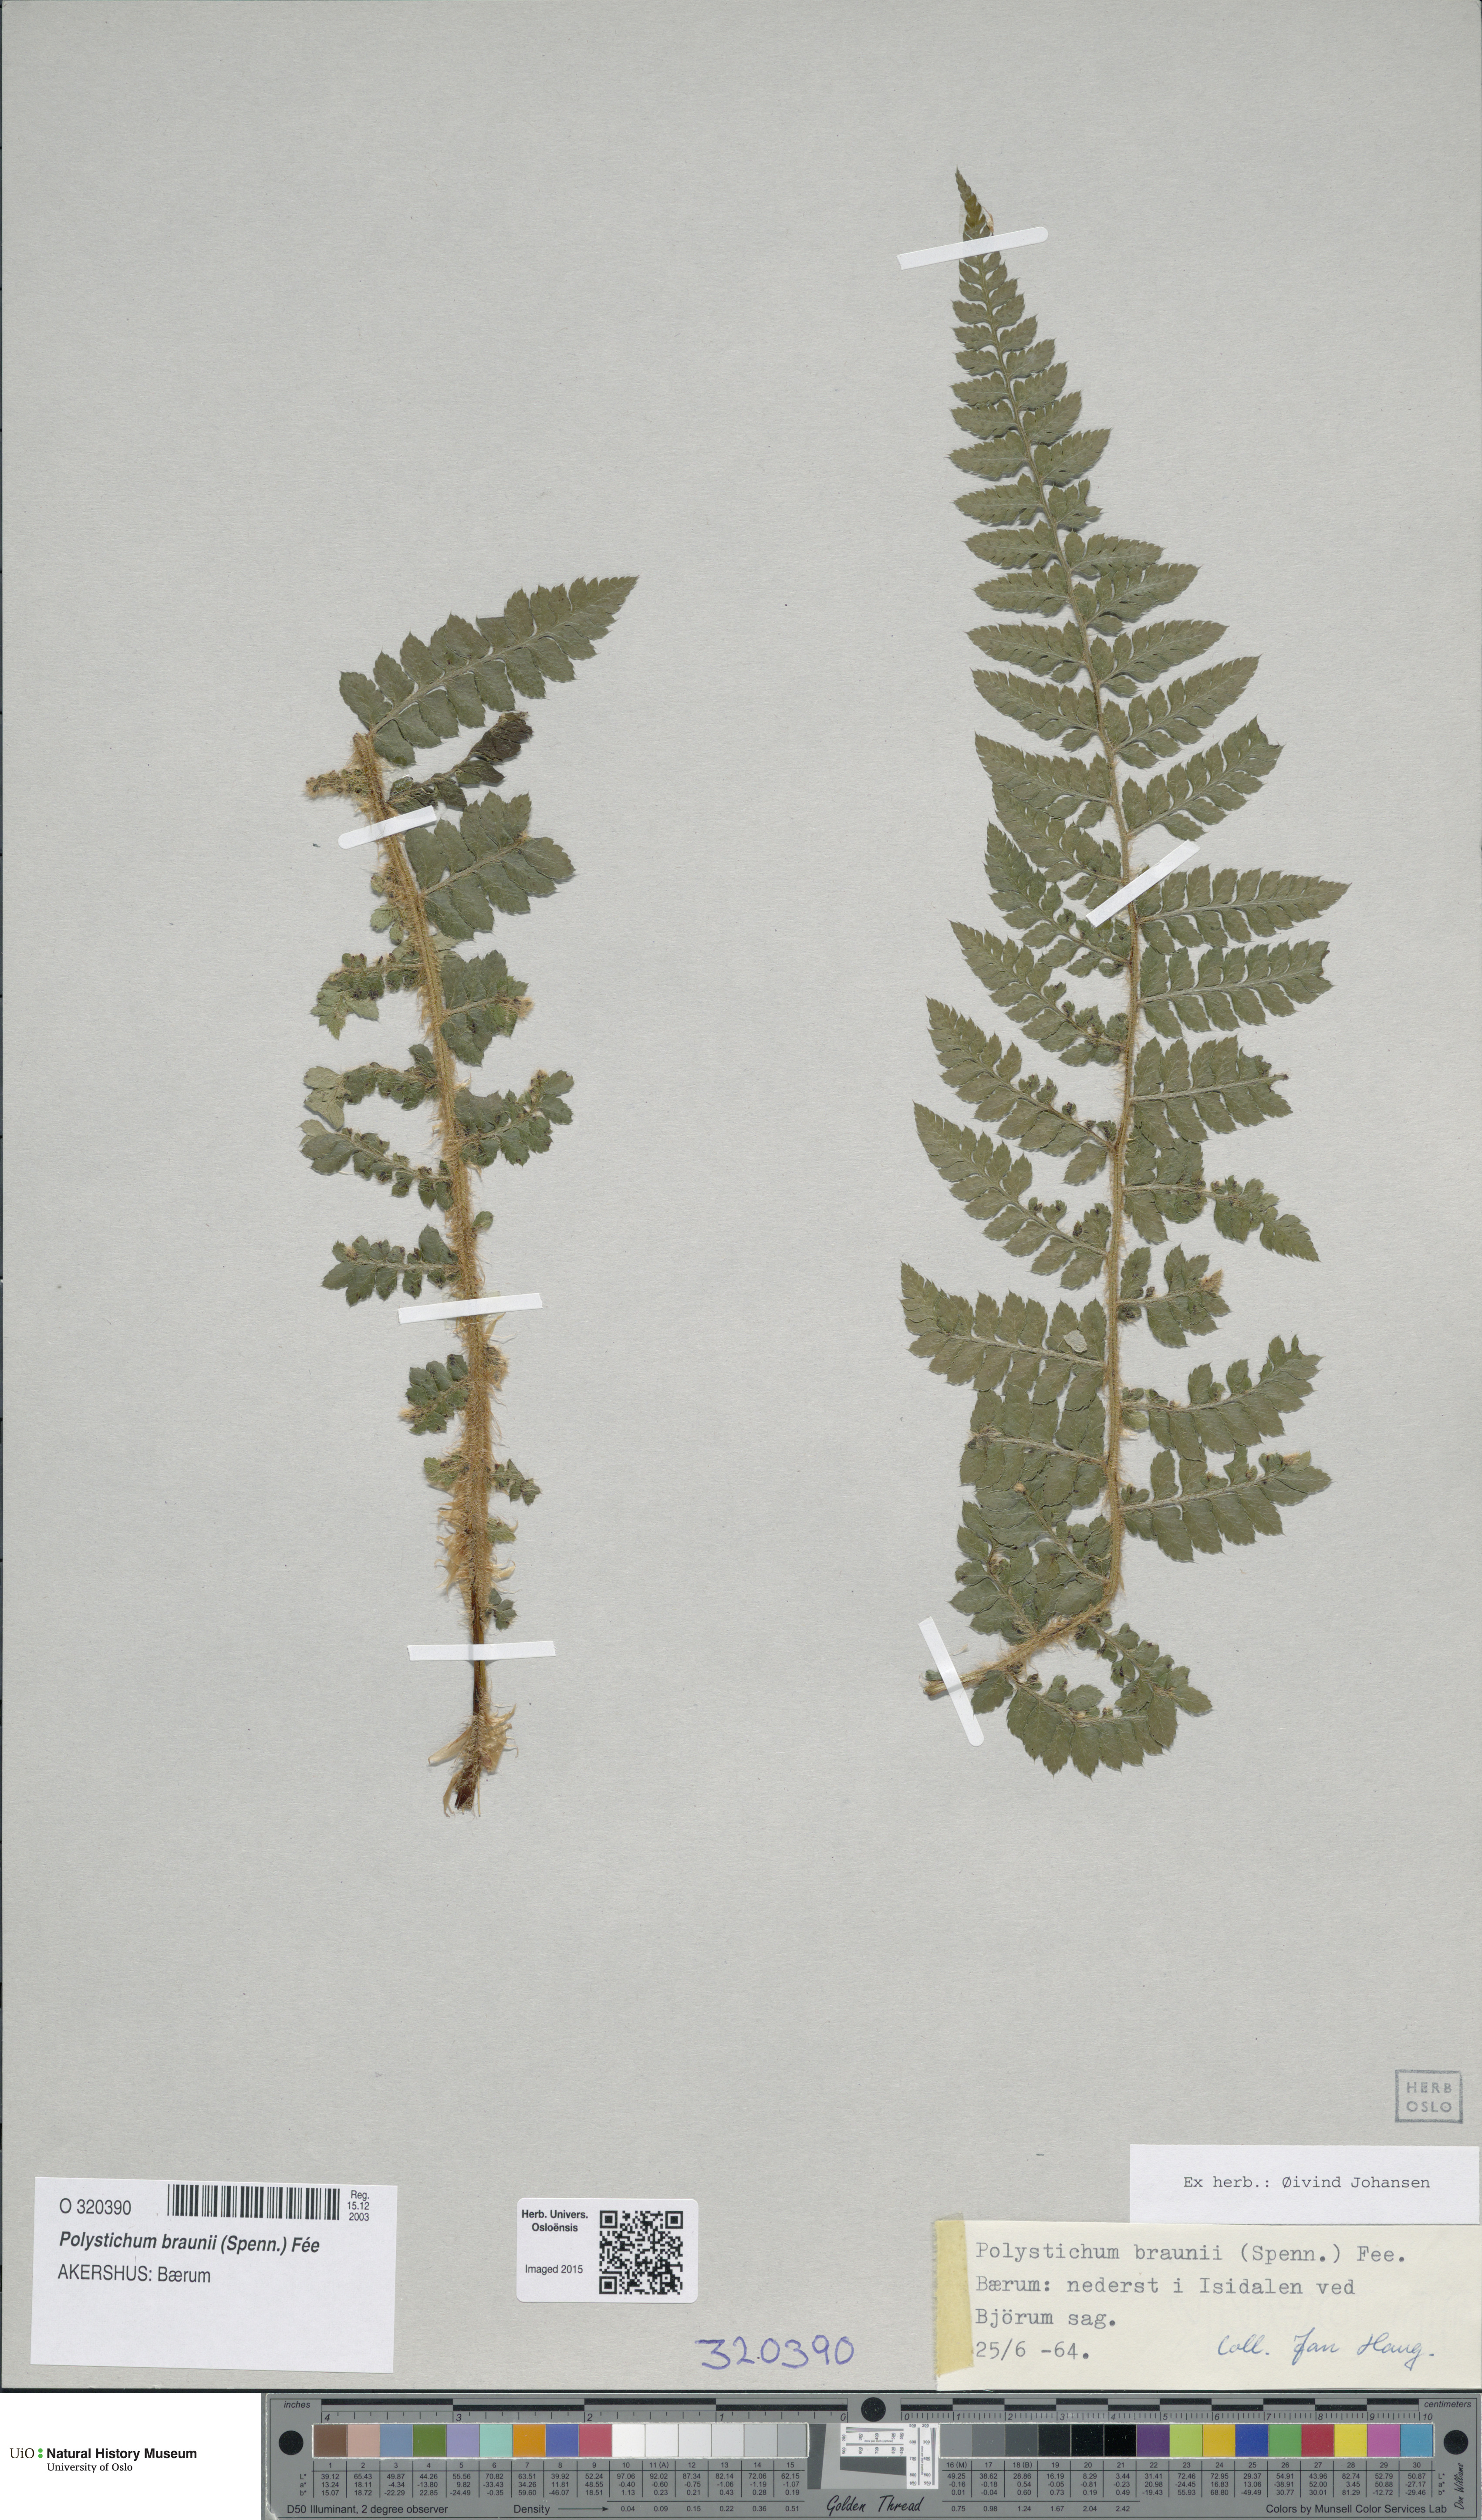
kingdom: Plantae
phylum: Tracheophyta
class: Polypodiopsida
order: Polypodiales
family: Dryopteridaceae
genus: Polystichum
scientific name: Polystichum braunii
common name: Braun's holly fern
